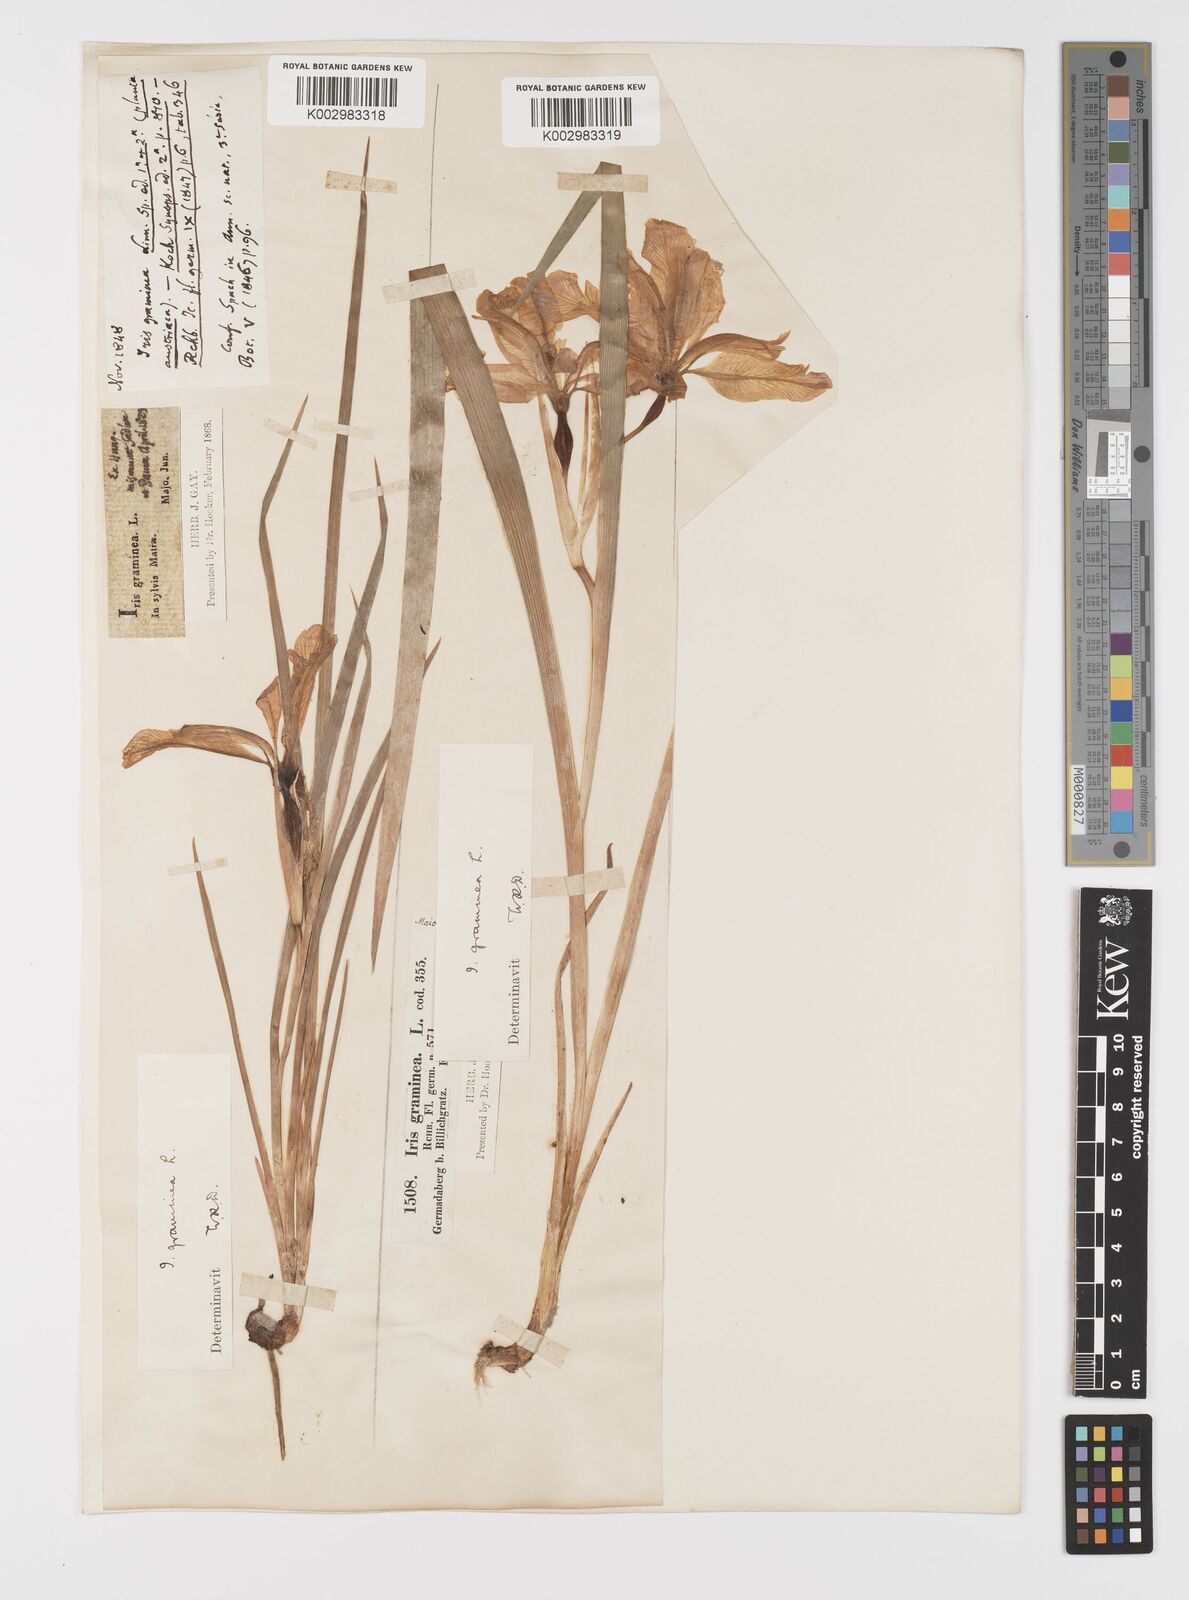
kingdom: Plantae
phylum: Tracheophyta
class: Liliopsida
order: Asparagales
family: Iridaceae
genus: Iris
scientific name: Iris graminea
